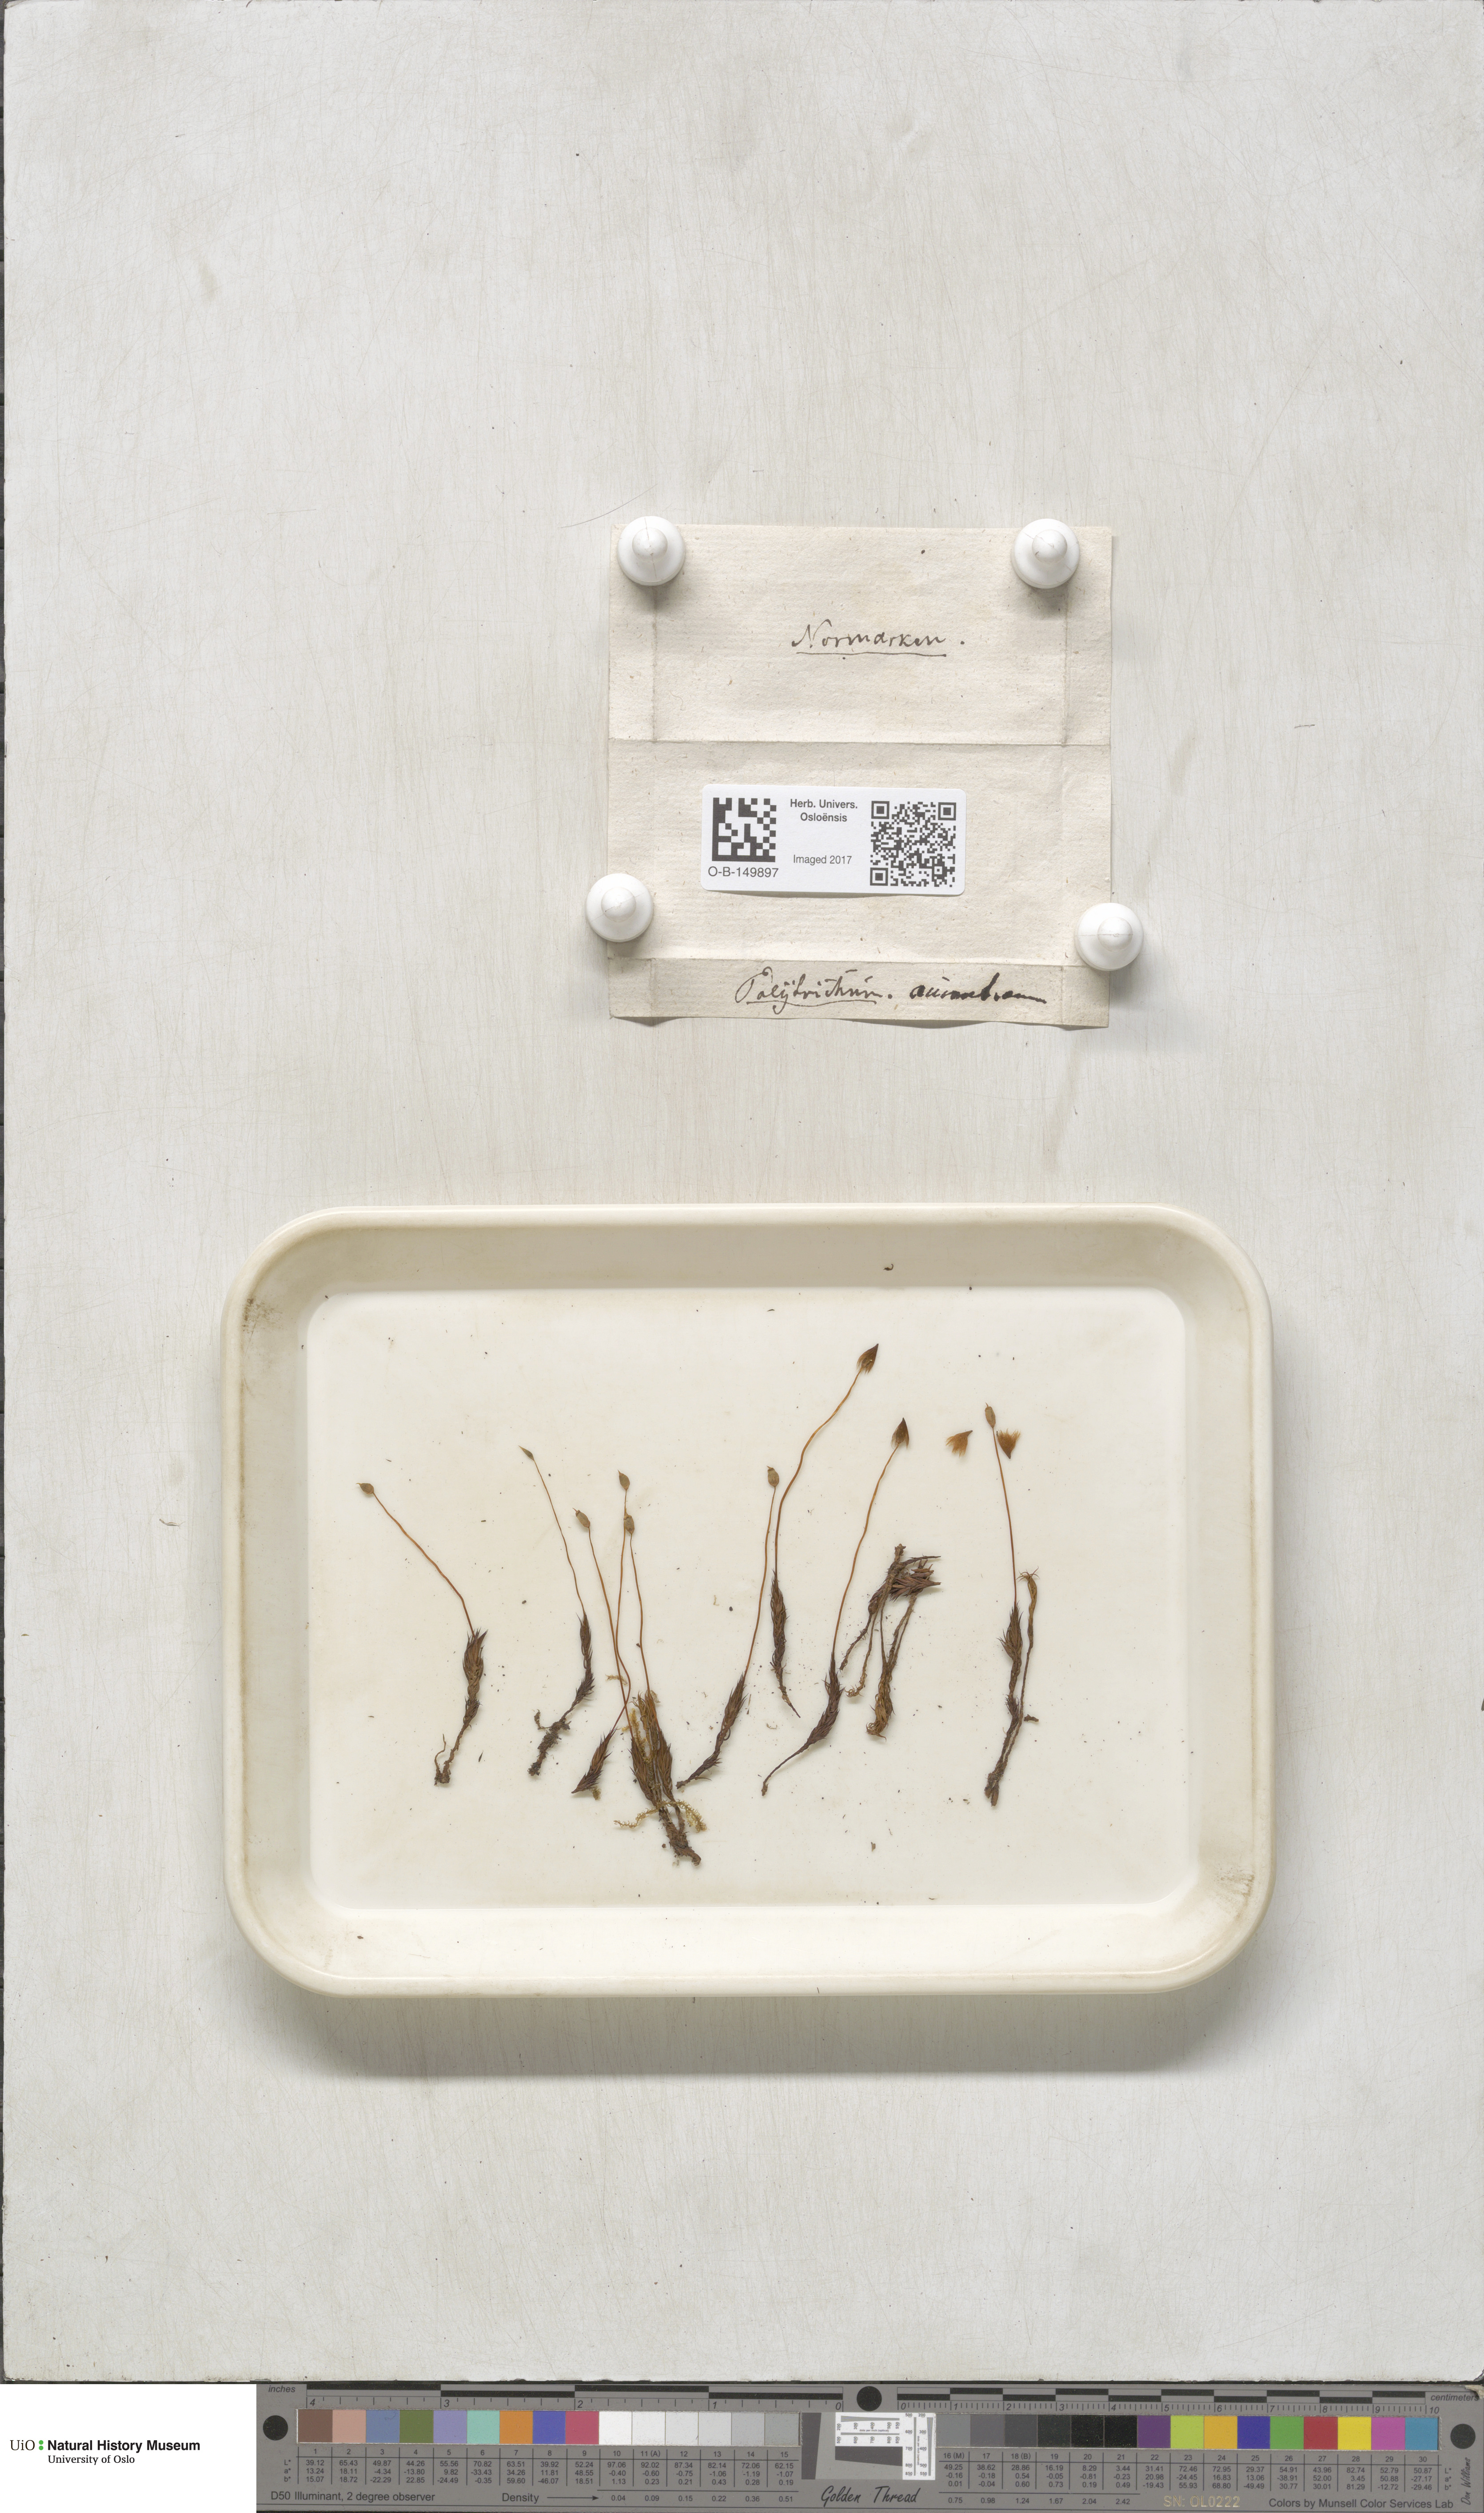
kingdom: Plantae
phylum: Bryophyta
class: Polytrichopsida
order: Polytrichales
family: Polytrichaceae
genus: Polytrichum
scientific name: Polytrichum longisetum
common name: Long-stalked haircap moss
